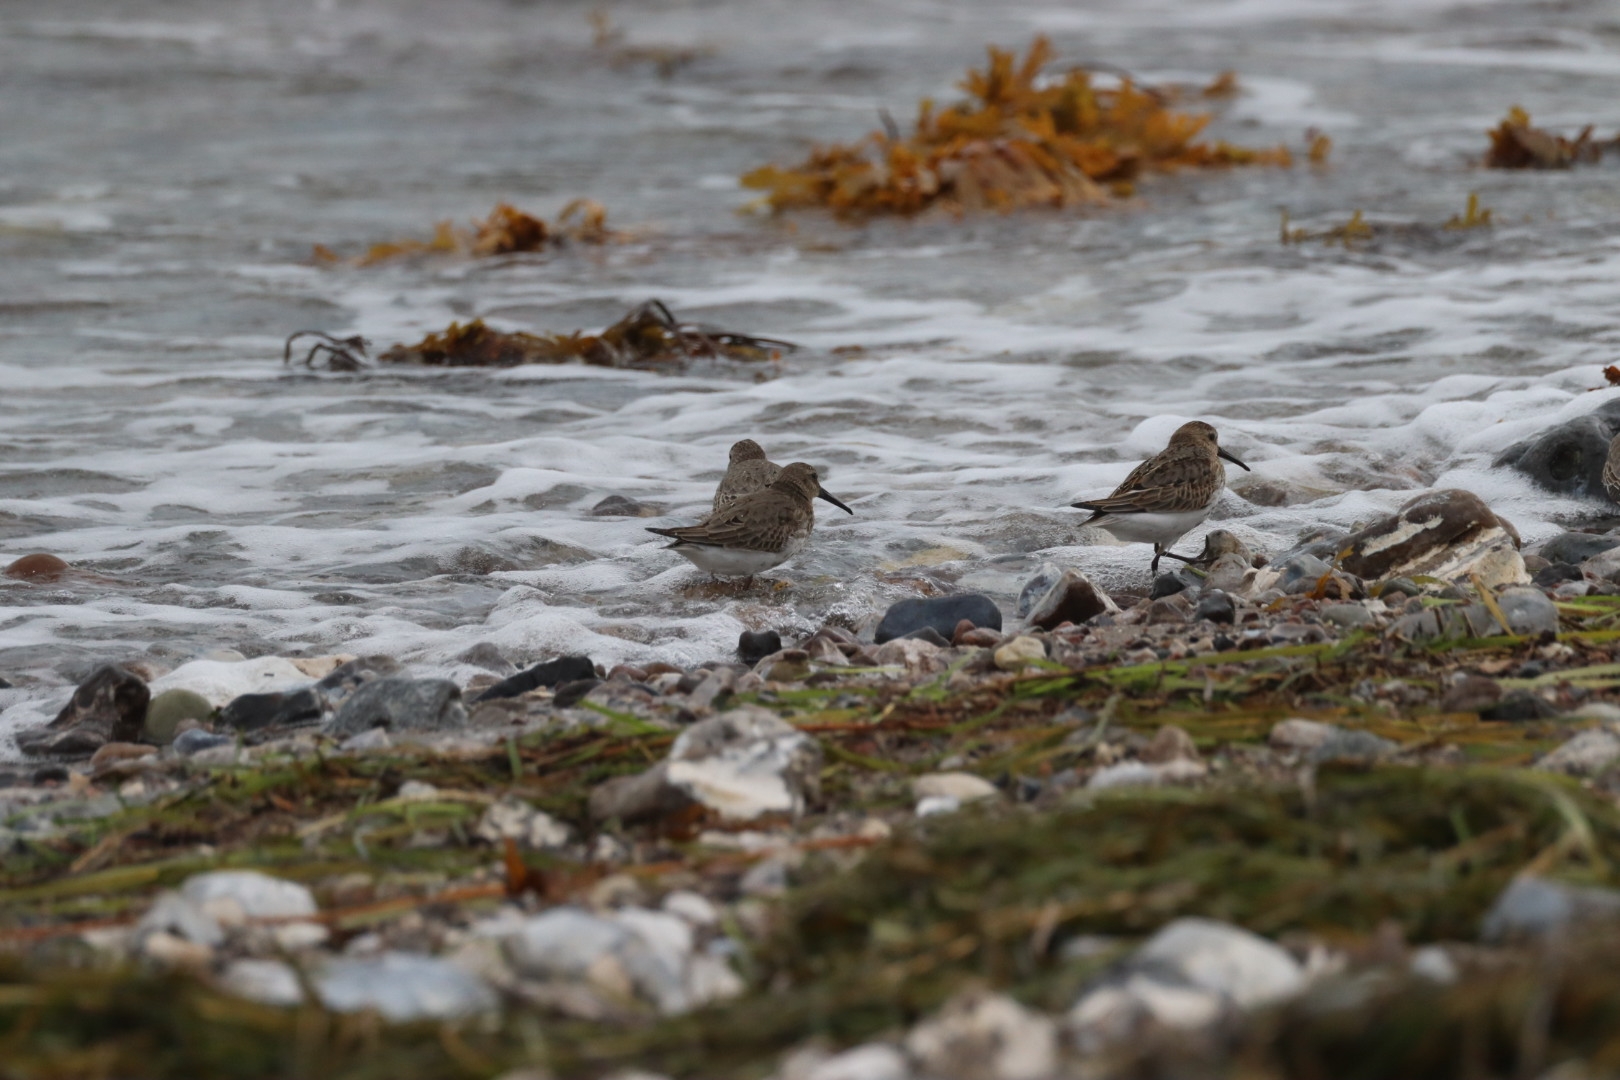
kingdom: Animalia
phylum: Chordata
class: Aves
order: Charadriiformes
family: Scolopacidae
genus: Calidris
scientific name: Calidris alpina
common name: Almindelig ryle
